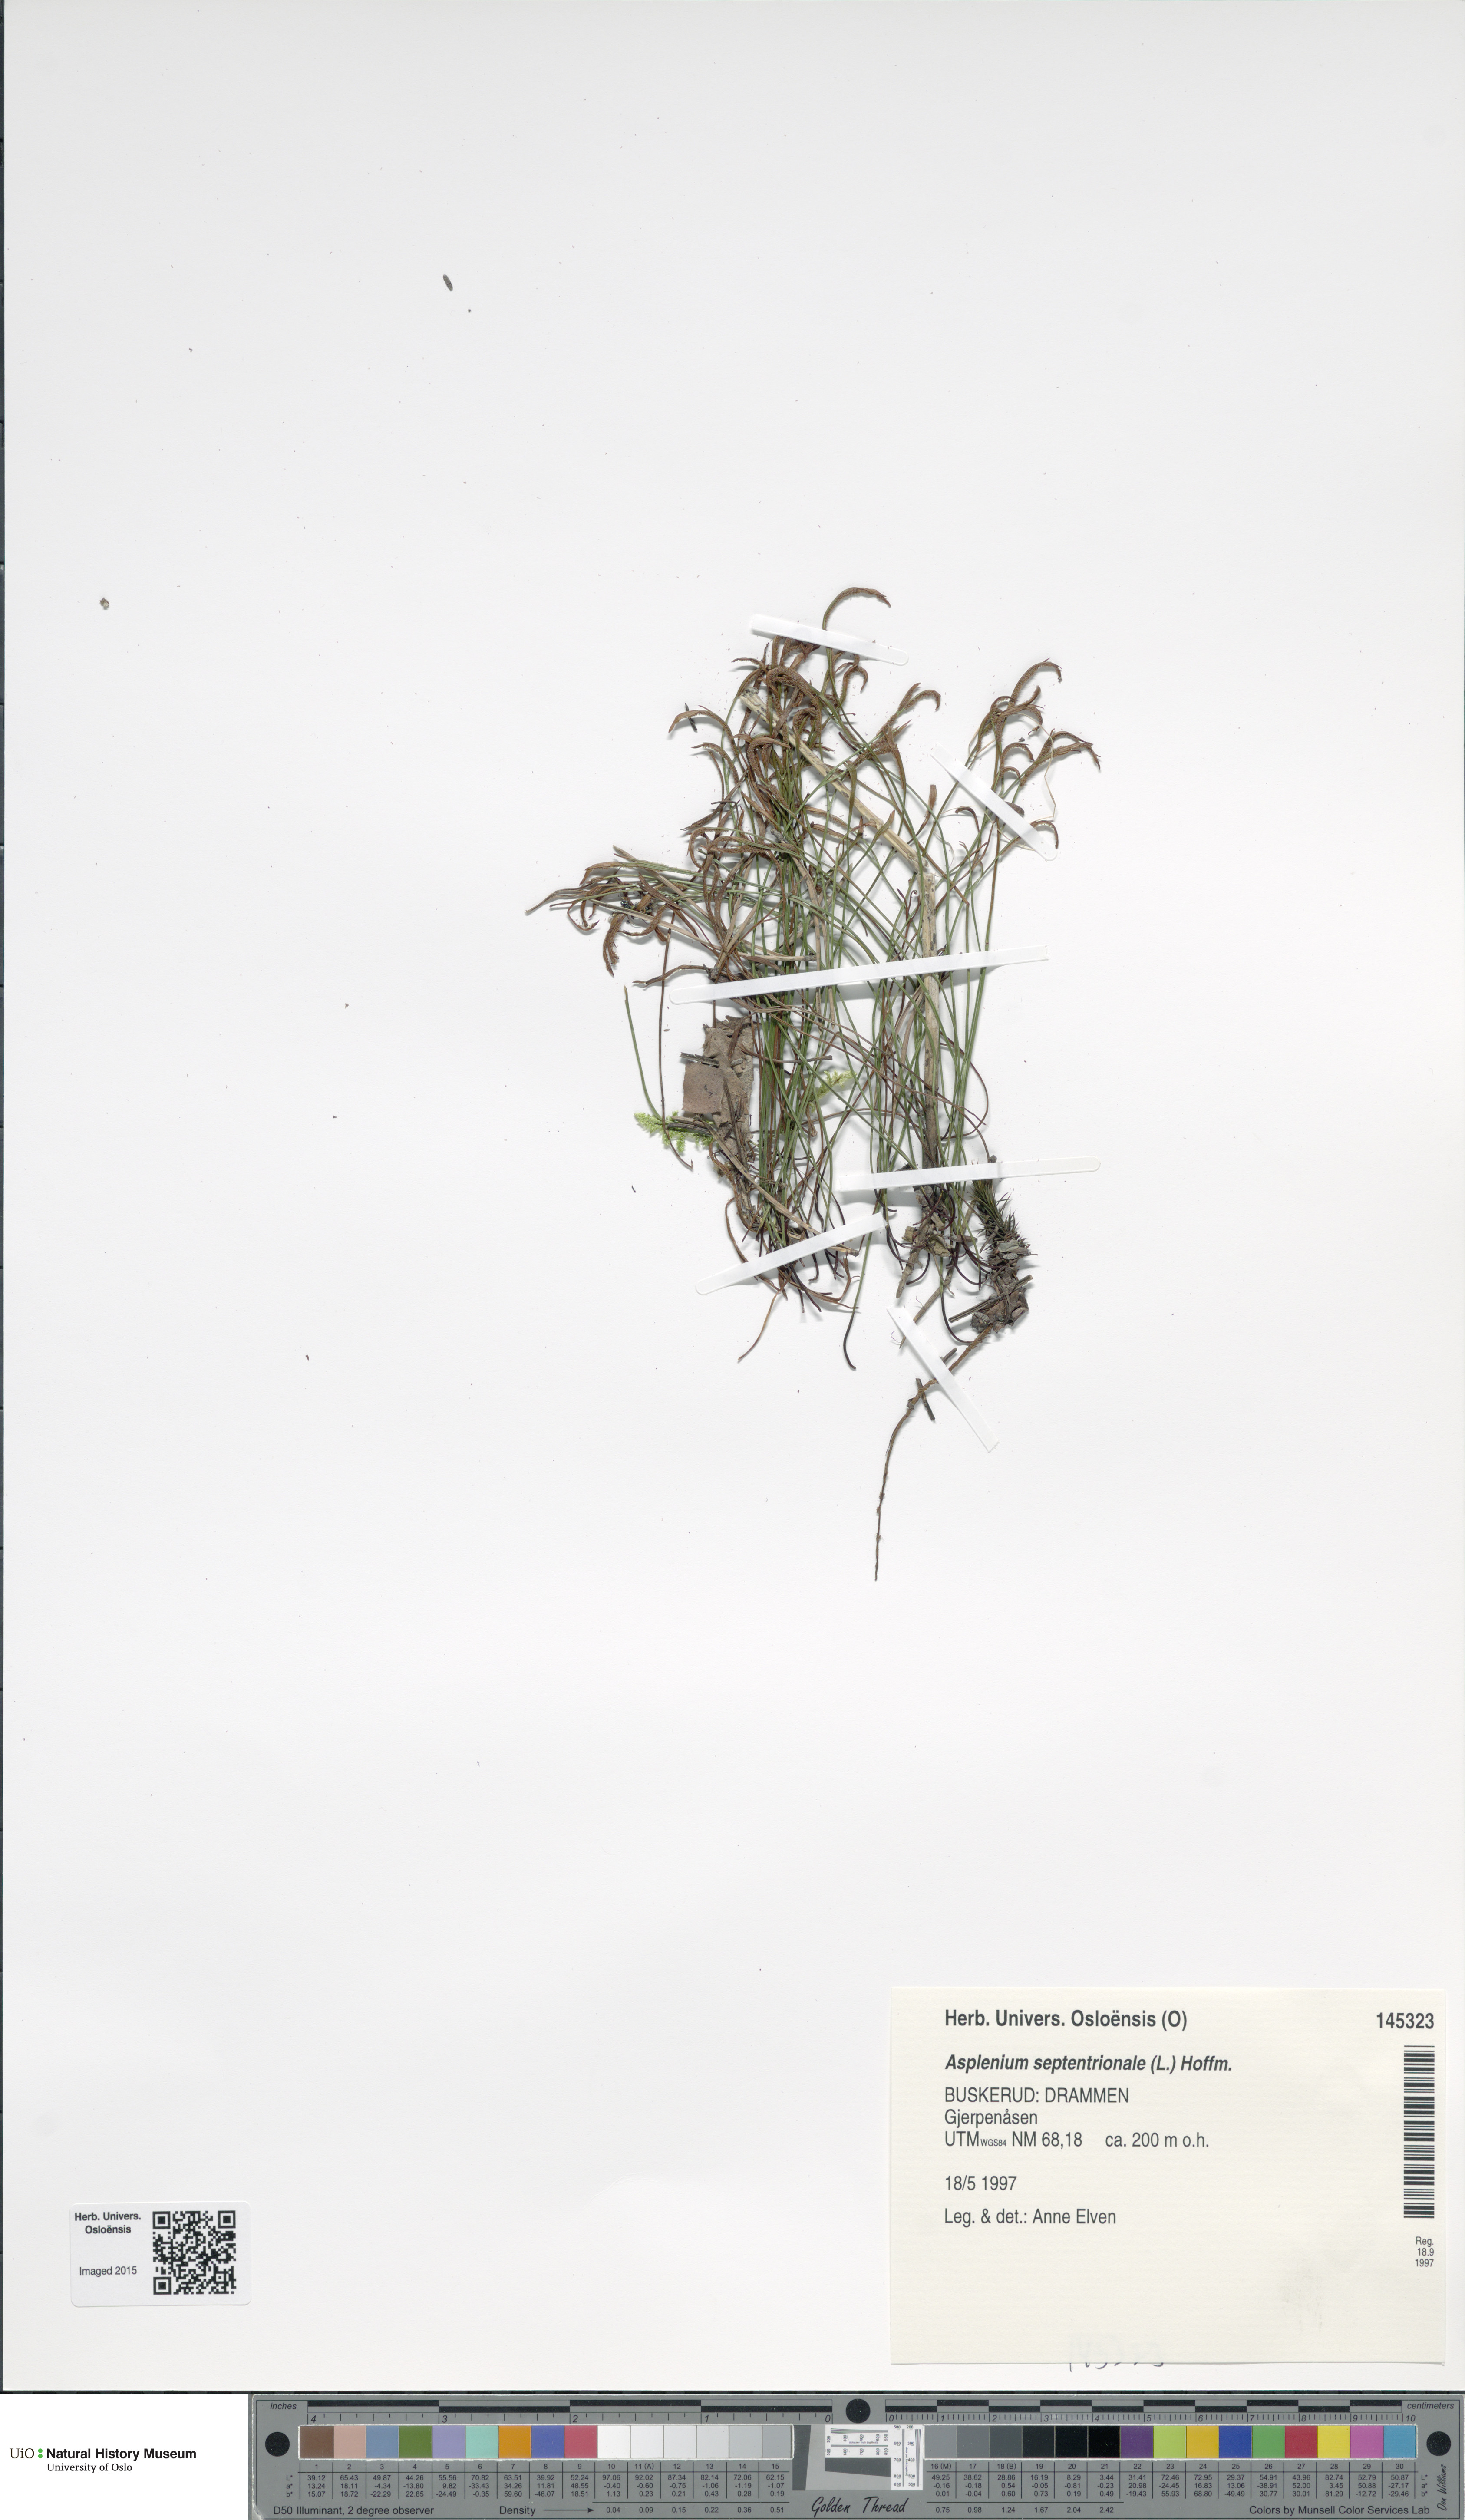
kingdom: Plantae
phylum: Tracheophyta
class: Polypodiopsida
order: Polypodiales
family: Aspleniaceae
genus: Asplenium
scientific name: Asplenium septentrionale
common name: Forked spleenwort
